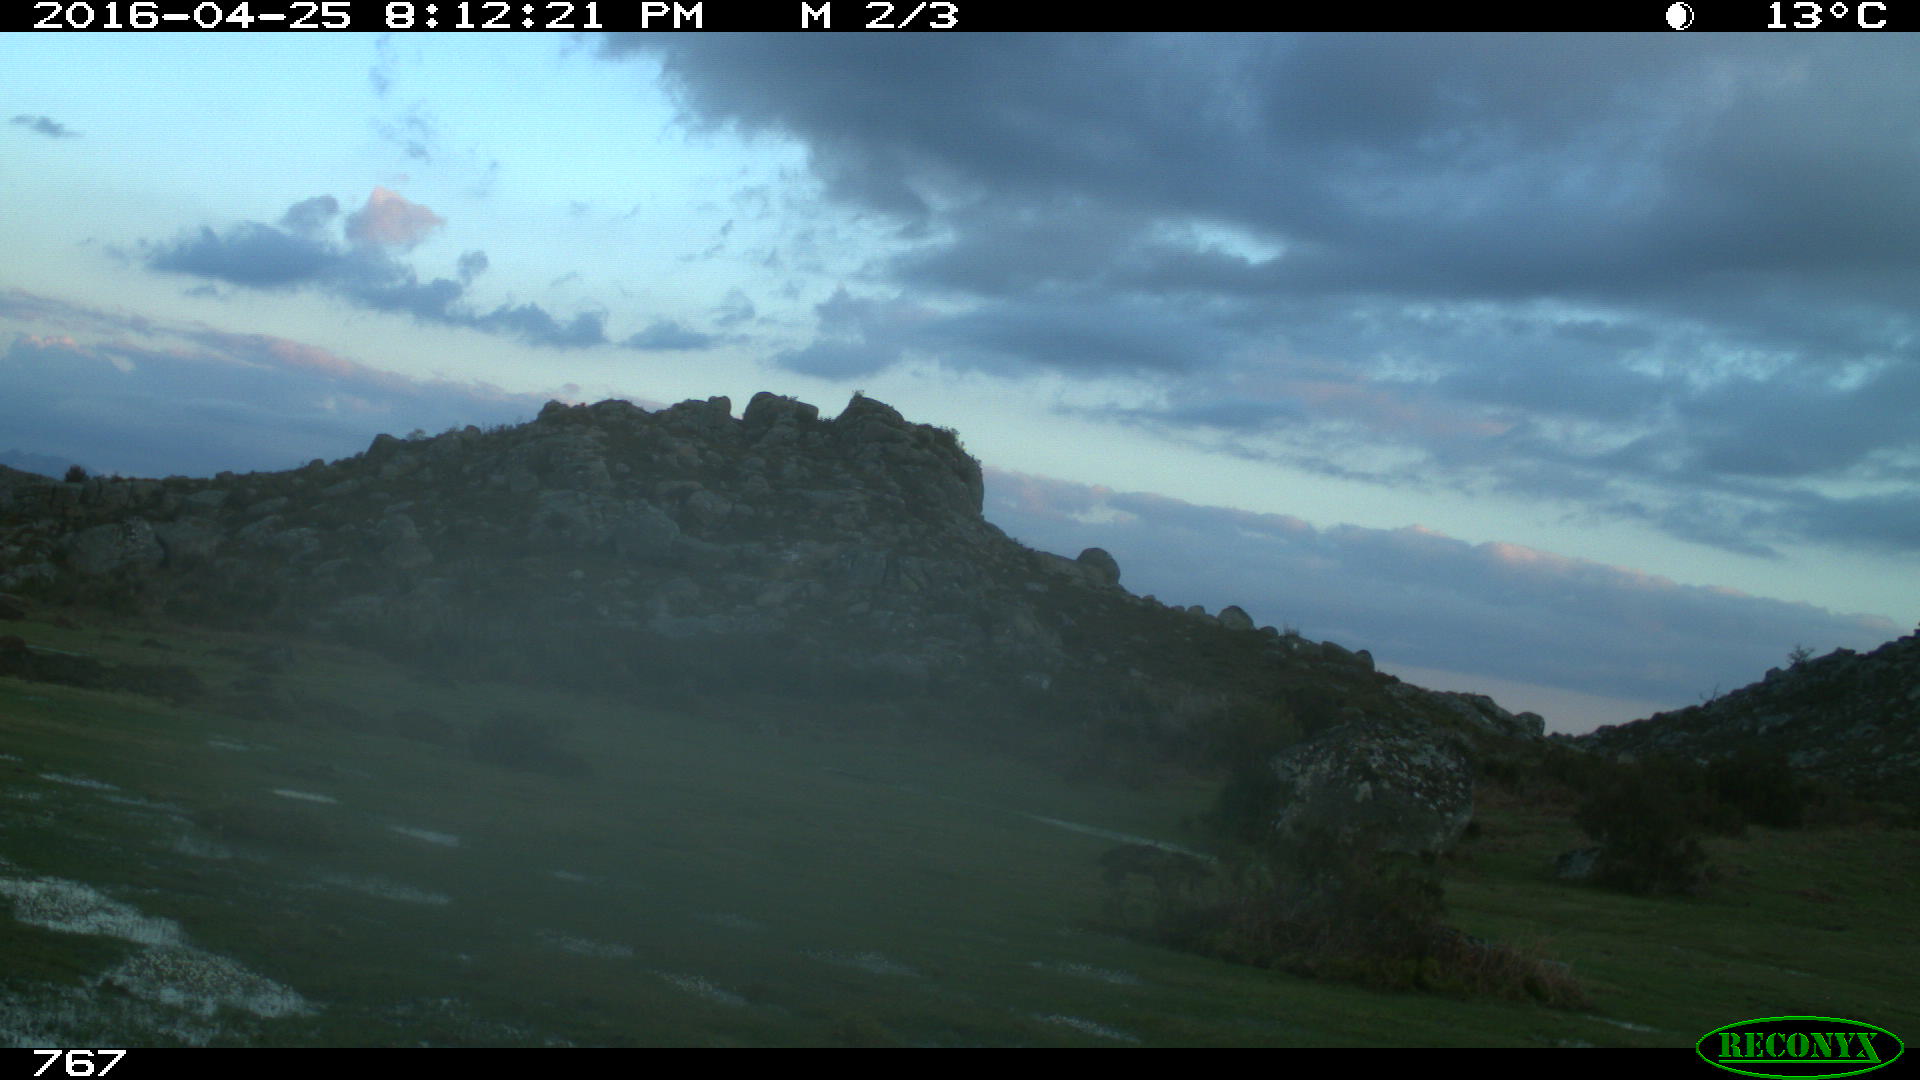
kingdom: Animalia
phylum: Chordata
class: Mammalia
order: Artiodactyla
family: Bovidae
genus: Bos
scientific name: Bos taurus
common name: Domesticated cattle
